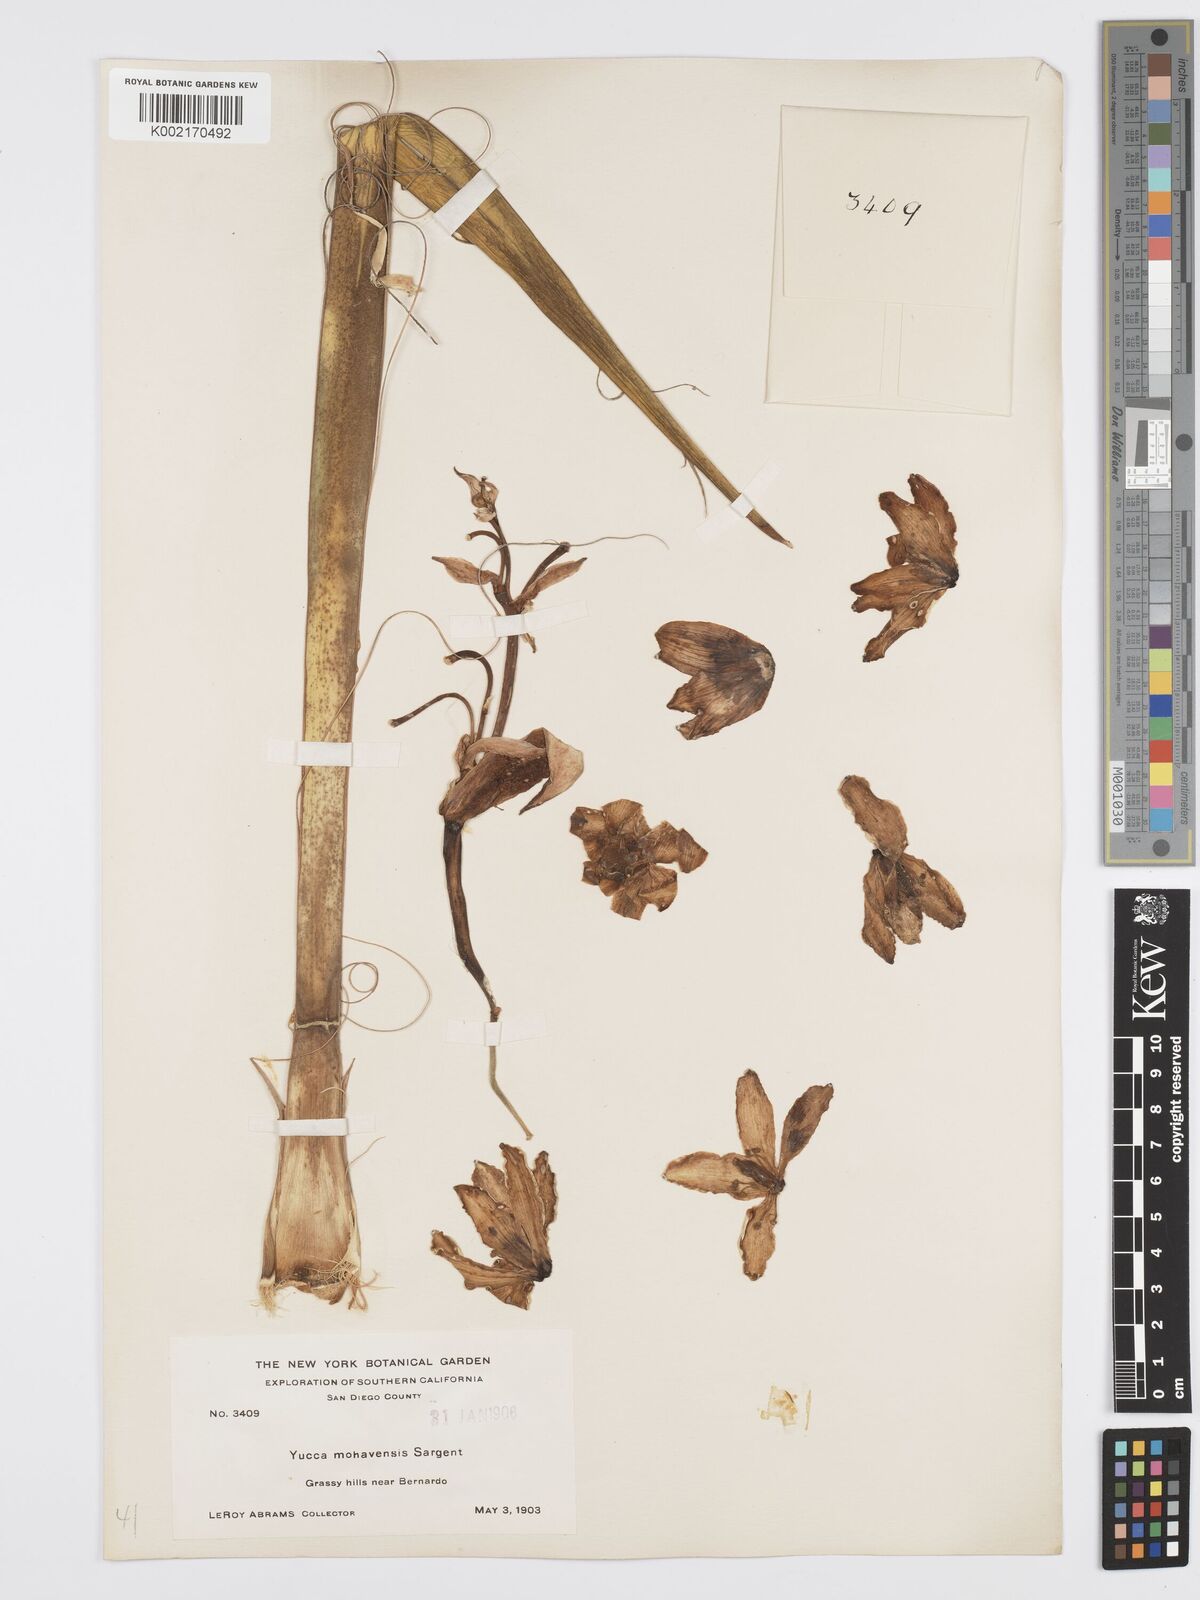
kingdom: Plantae
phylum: Tracheophyta
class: Liliopsida
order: Asparagales
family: Asparagaceae
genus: Yucca
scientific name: Yucca schidigera
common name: Mojave yucca
